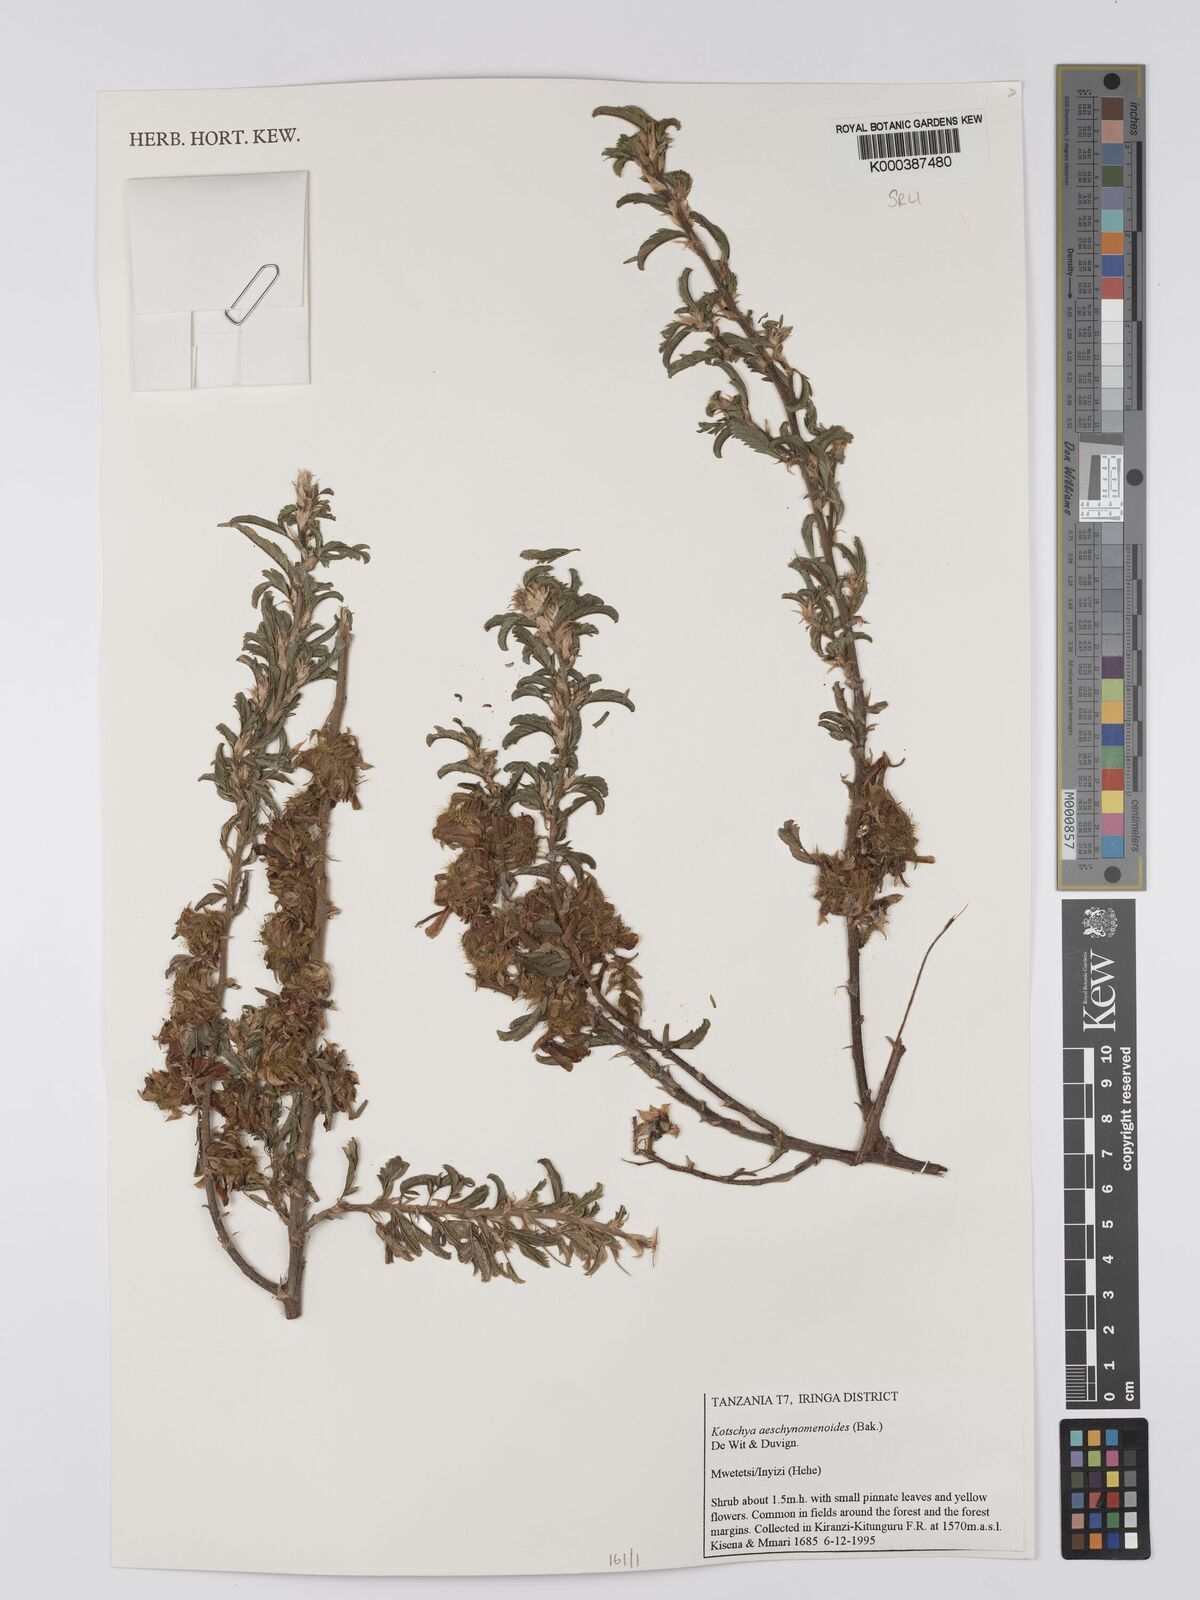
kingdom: Plantae
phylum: Tracheophyta
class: Magnoliopsida
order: Fabales
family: Fabaceae
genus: Kotschya
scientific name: Kotschya aeschynomenoides
